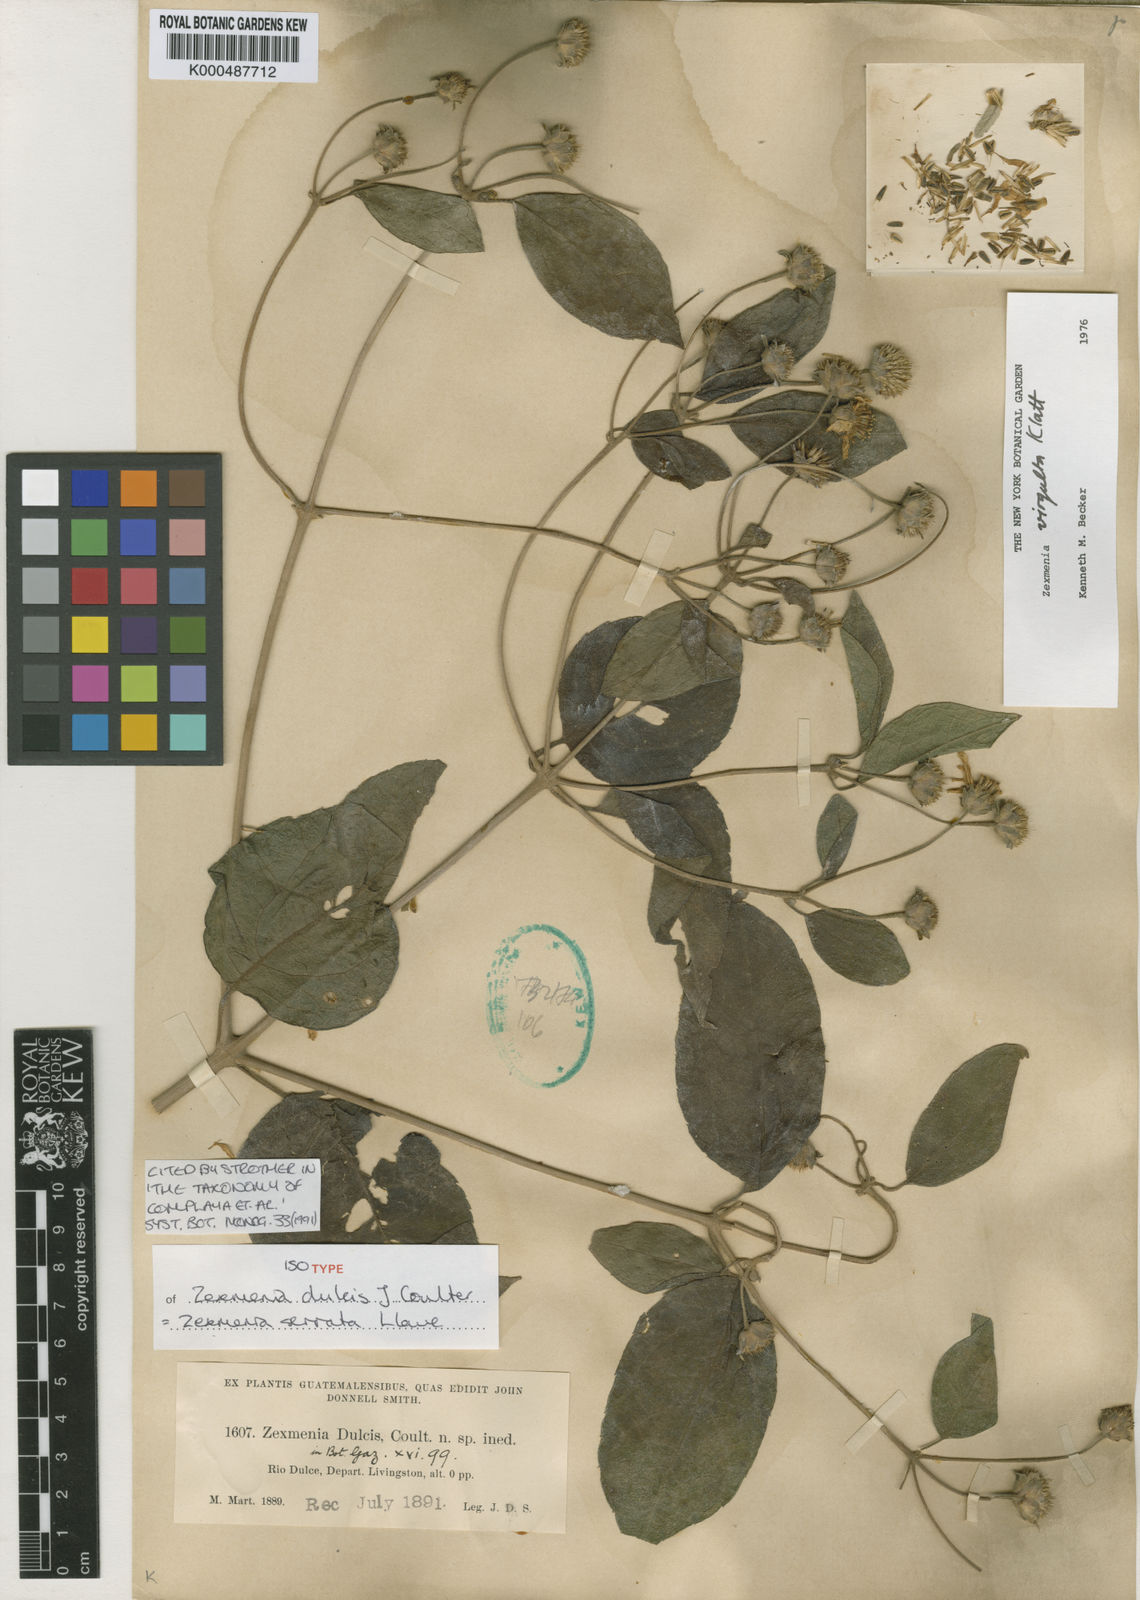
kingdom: Plantae
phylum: Tracheophyta
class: Magnoliopsida
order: Asterales
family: Asteraceae
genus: Zexmenia
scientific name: Zexmenia serrata
